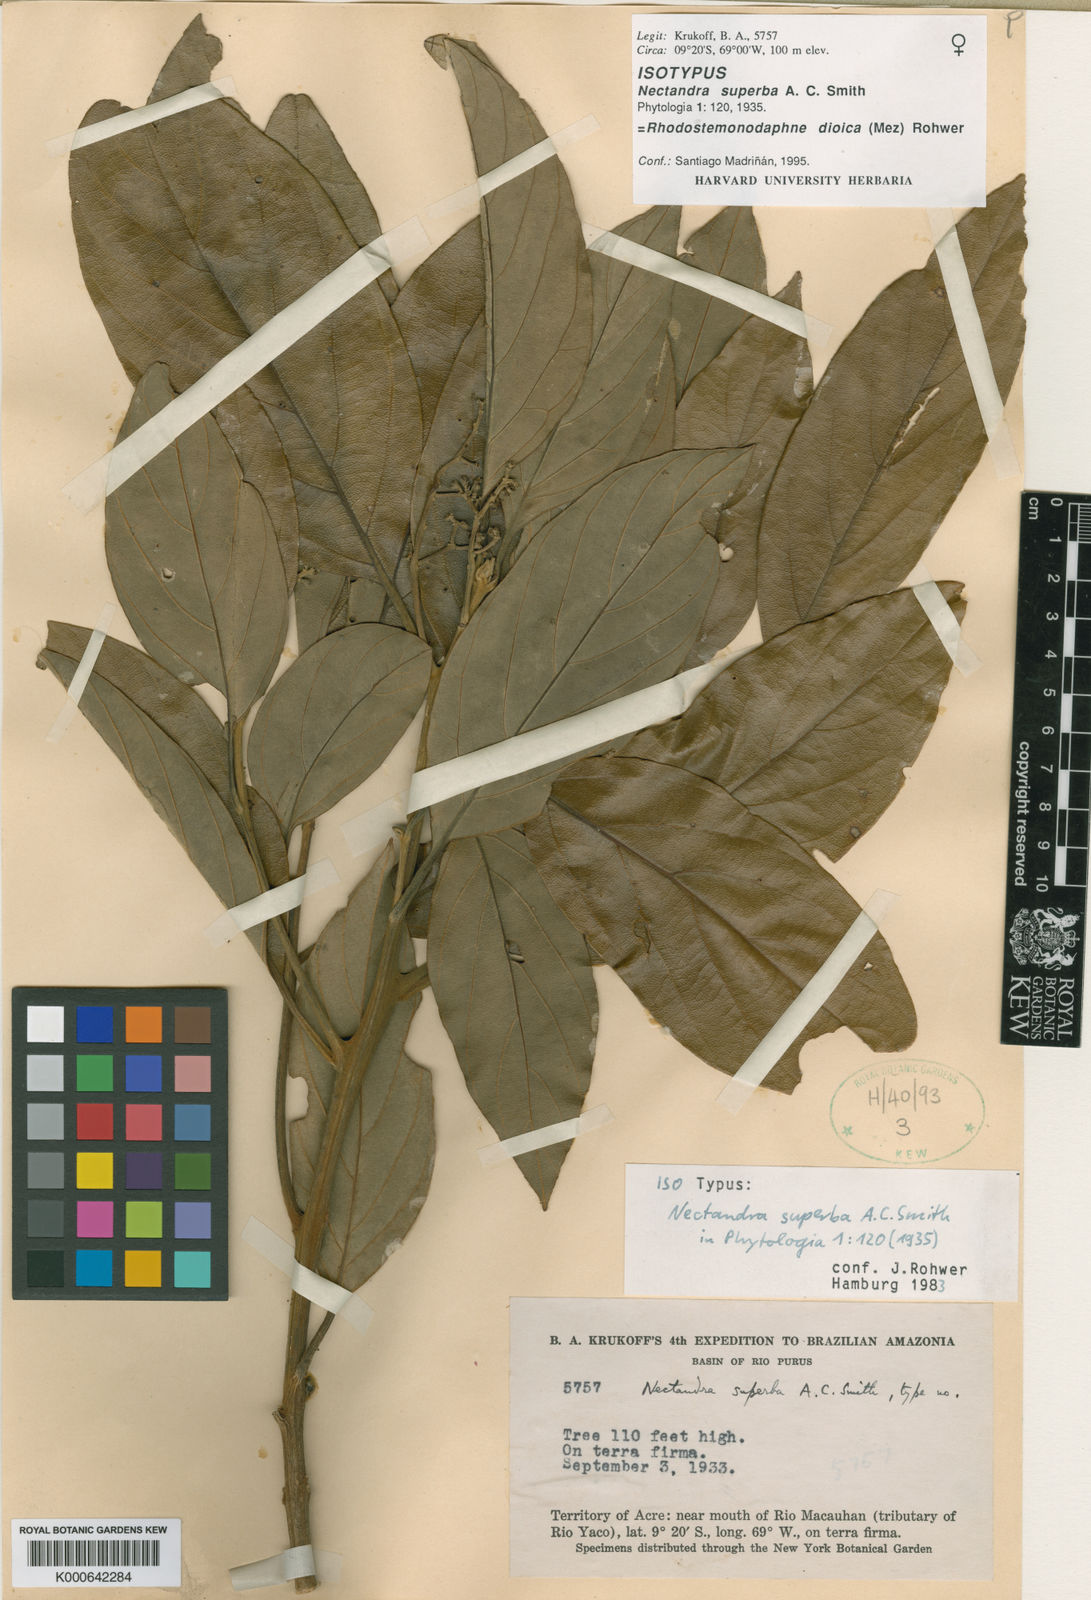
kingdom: Plantae
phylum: Tracheophyta
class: Magnoliopsida
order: Laurales
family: Lauraceae
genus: Rhodostemonodaphne
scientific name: Rhodostemonodaphne dioica
